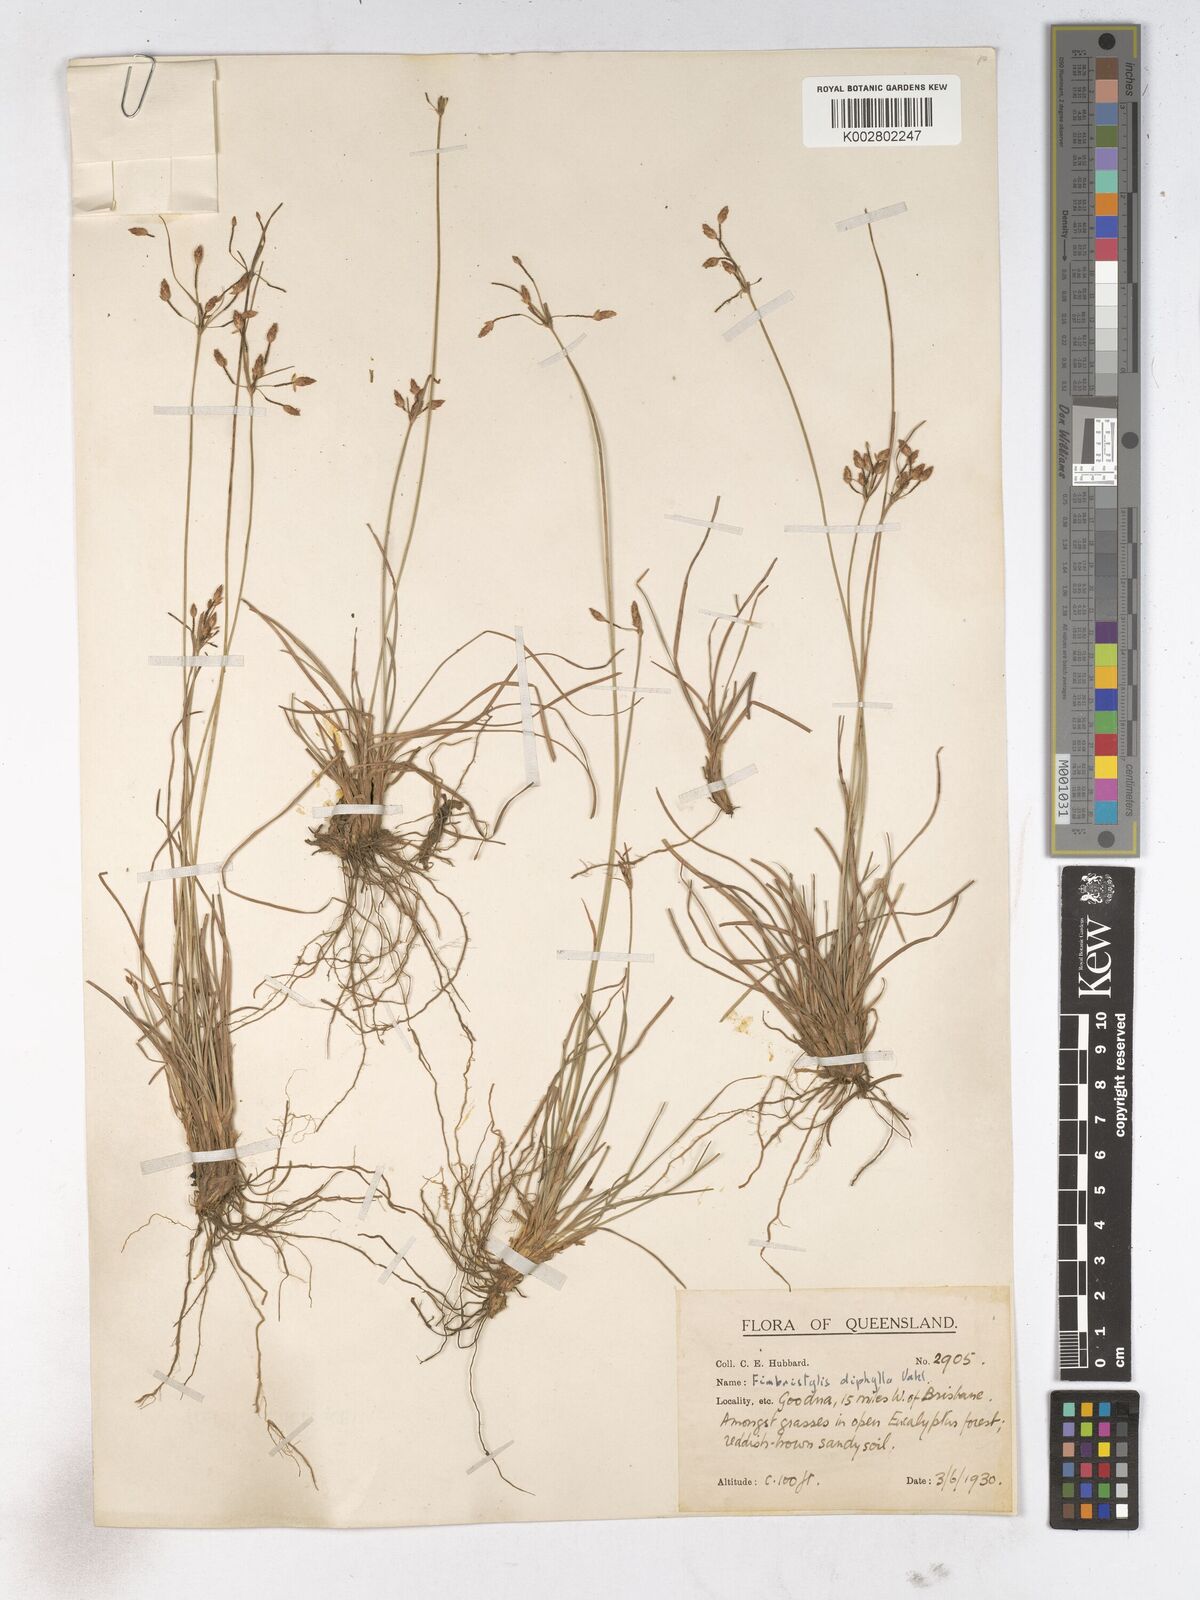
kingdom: Plantae
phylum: Tracheophyta
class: Liliopsida
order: Poales
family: Cyperaceae
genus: Fimbristylis
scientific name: Fimbristylis dichotoma
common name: Forked fimbry
